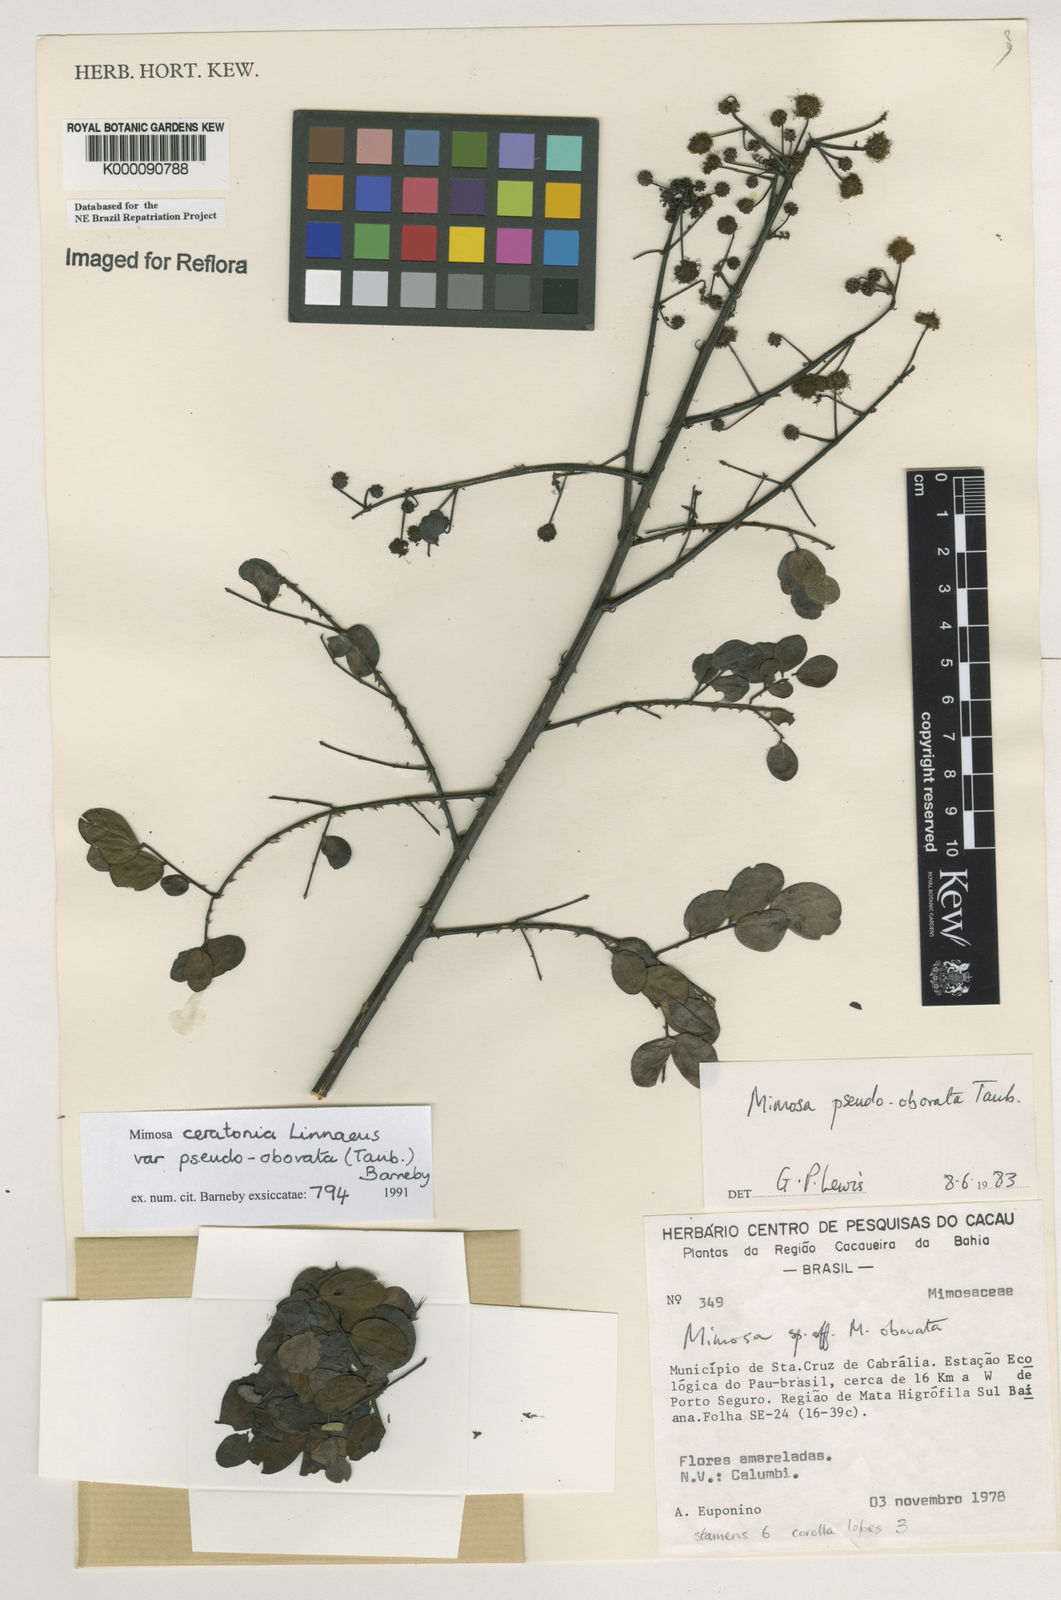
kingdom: Plantae
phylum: Tracheophyta
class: Magnoliopsida
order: Fabales
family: Fabaceae
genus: Mimosa
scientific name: Mimosa ceratonia
